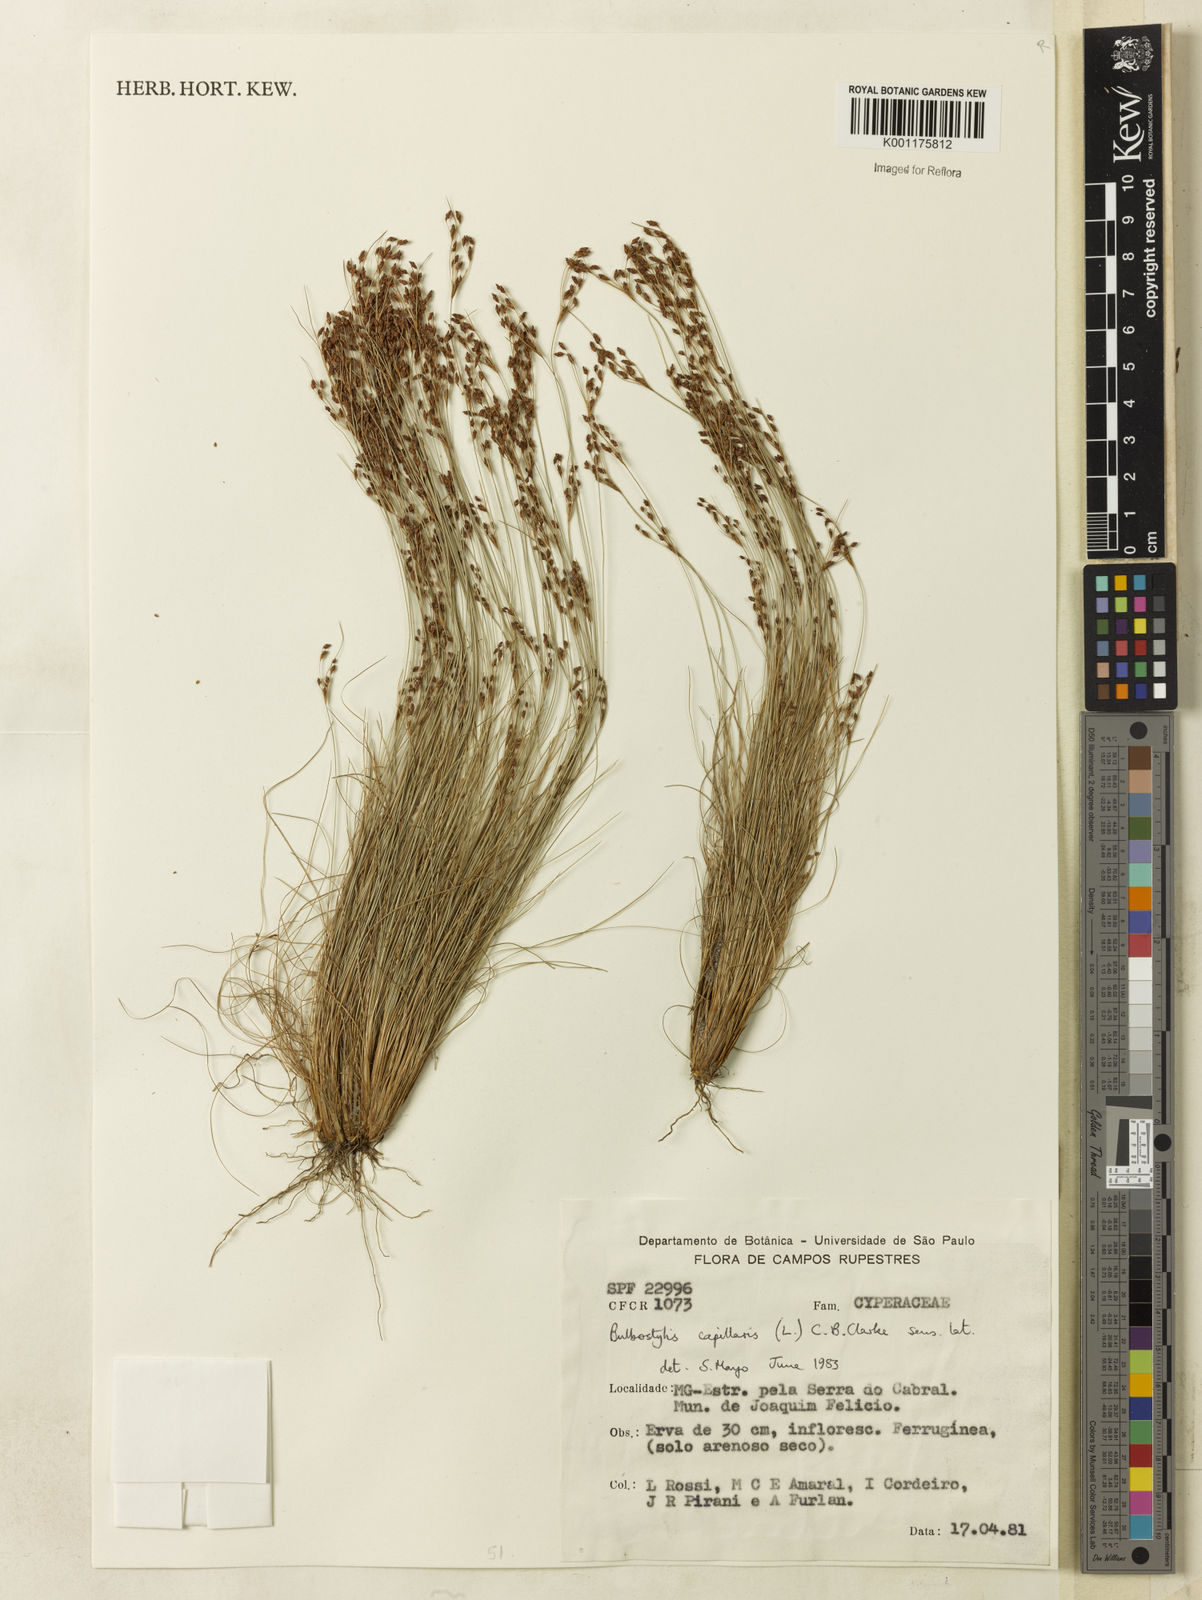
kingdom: Plantae
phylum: Tracheophyta
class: Liliopsida
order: Poales
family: Cyperaceae
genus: Bulbostylis
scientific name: Bulbostylis capillaris
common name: Densetuft hairsedge
